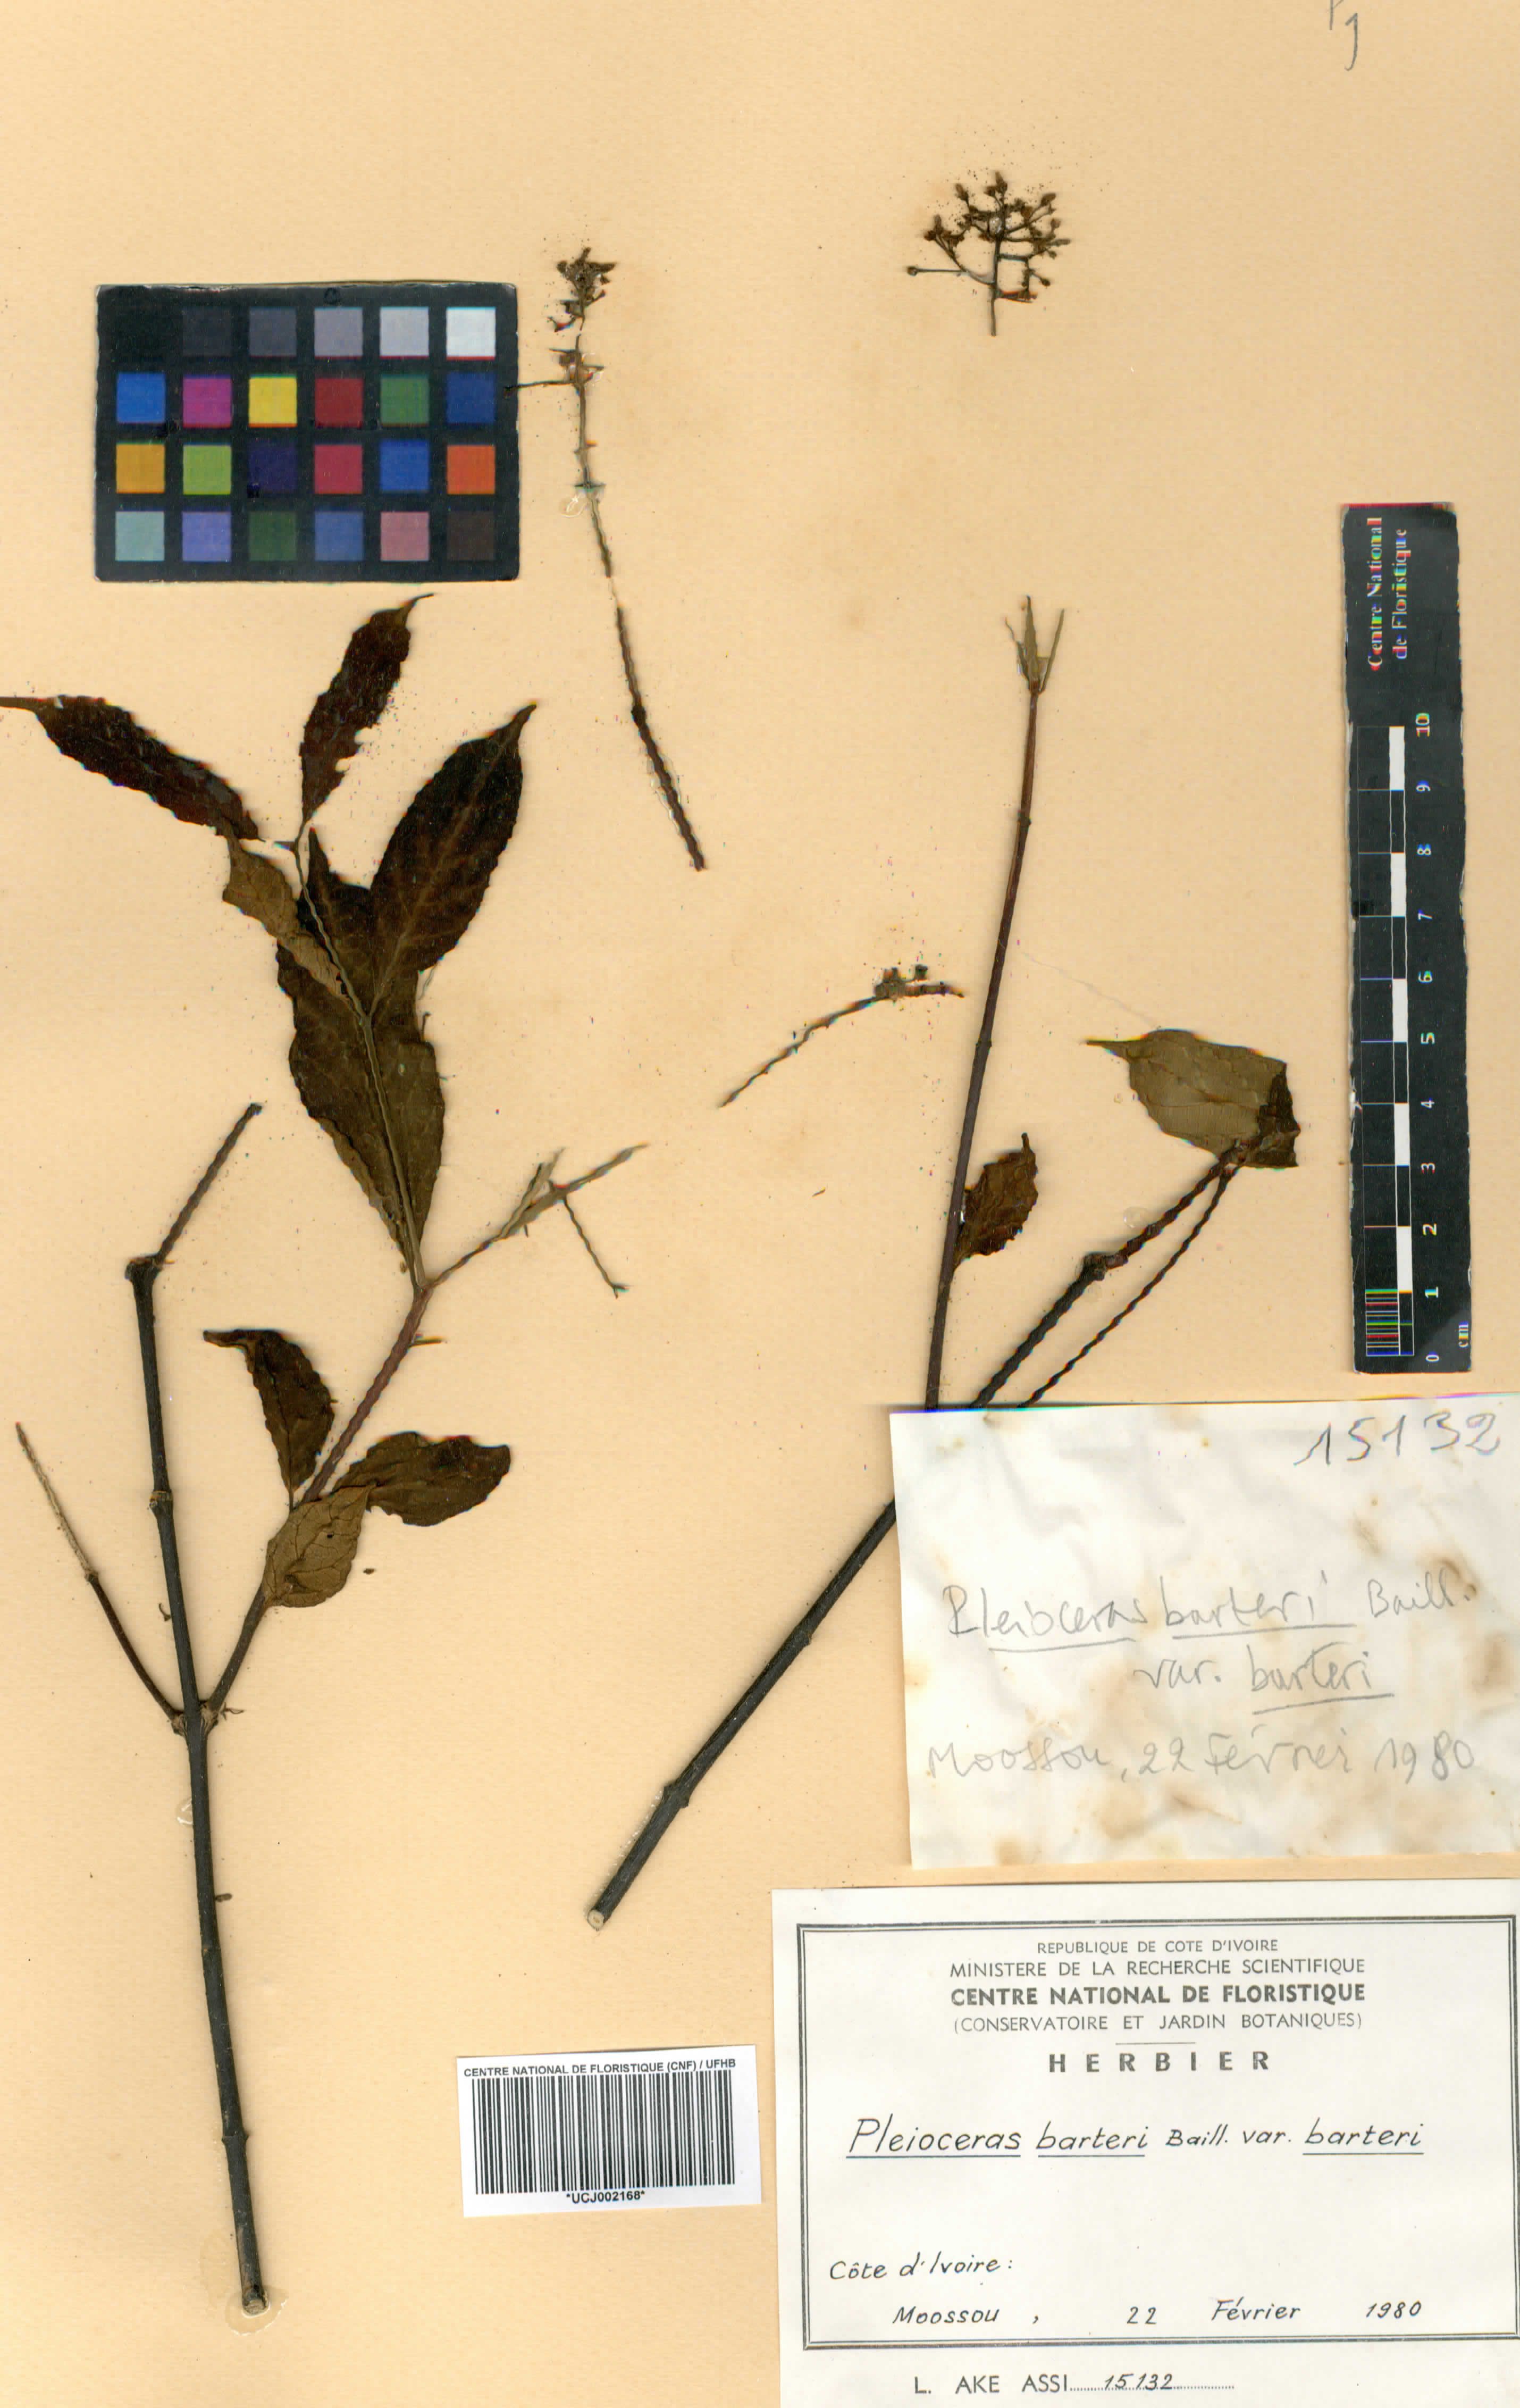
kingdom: Plantae
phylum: Tracheophyta
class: Magnoliopsida
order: Gentianales
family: Apocynaceae
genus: Pleioceras
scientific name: Pleioceras barteri
